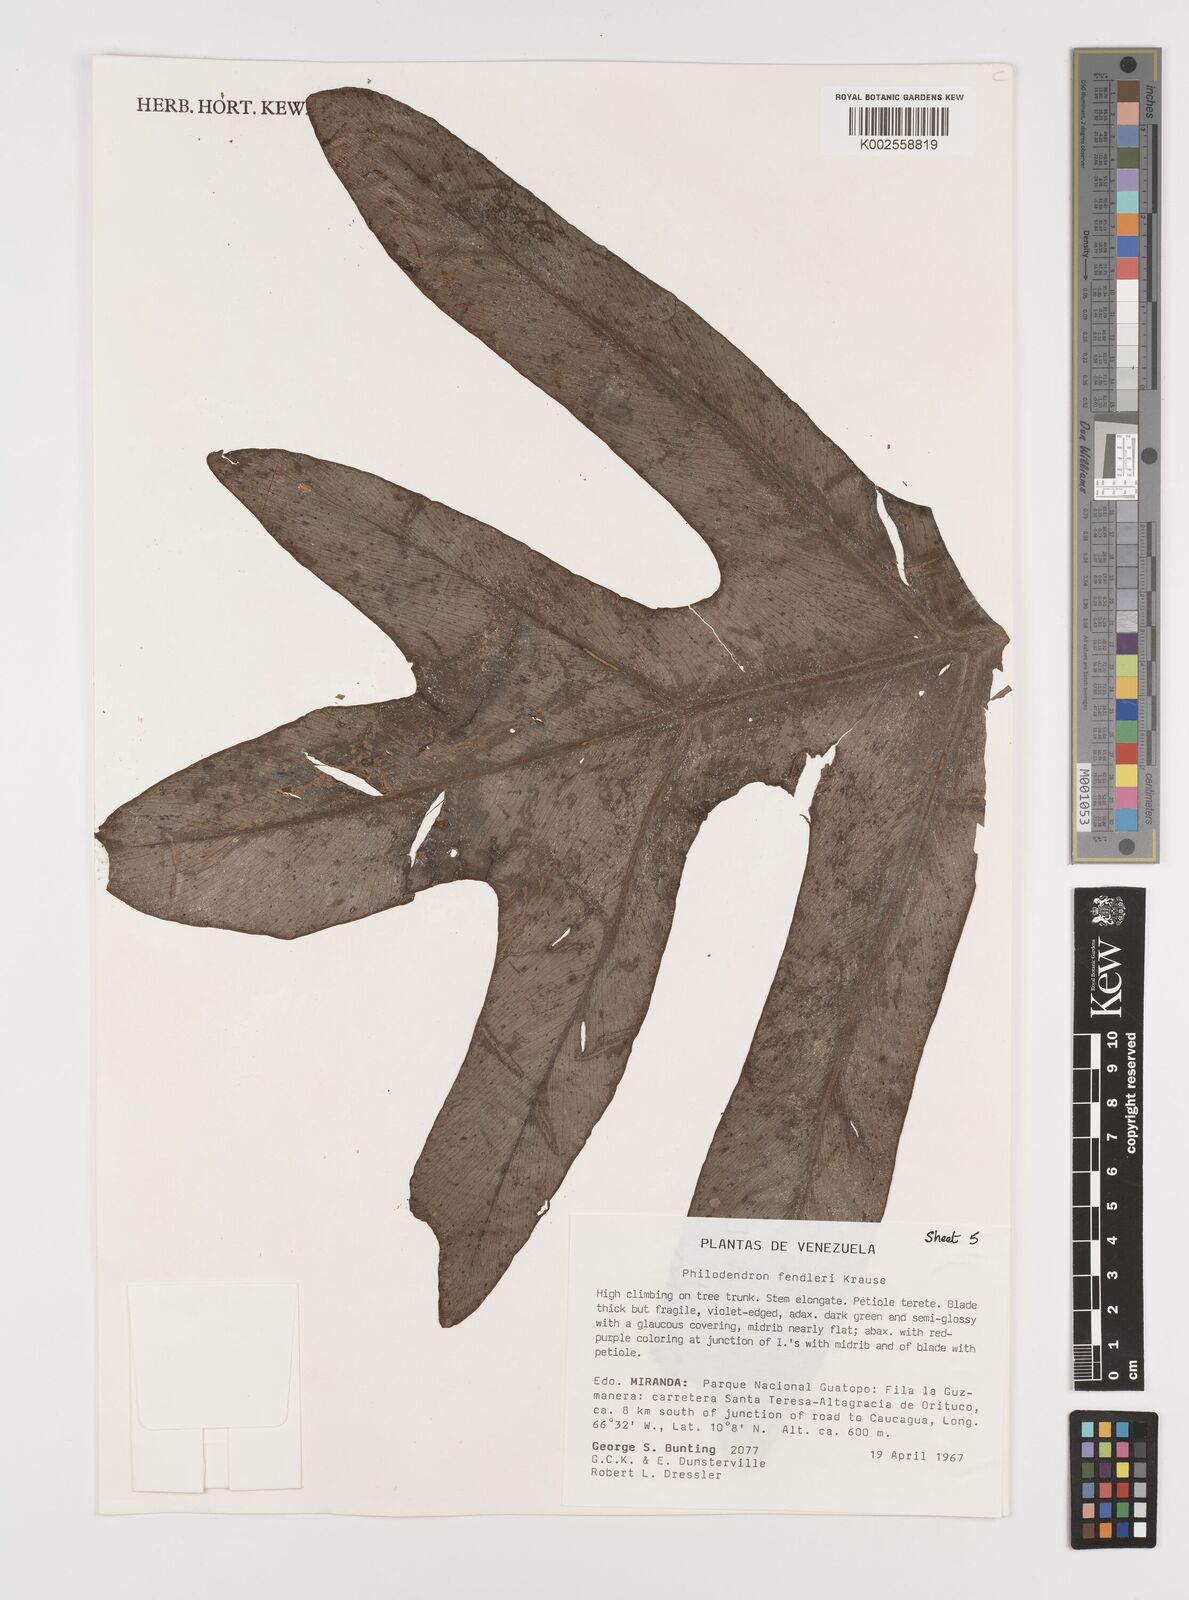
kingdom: Plantae
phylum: Tracheophyta
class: Liliopsida
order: Alismatales
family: Araceae
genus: Philodendron
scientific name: Philodendron fendleri
